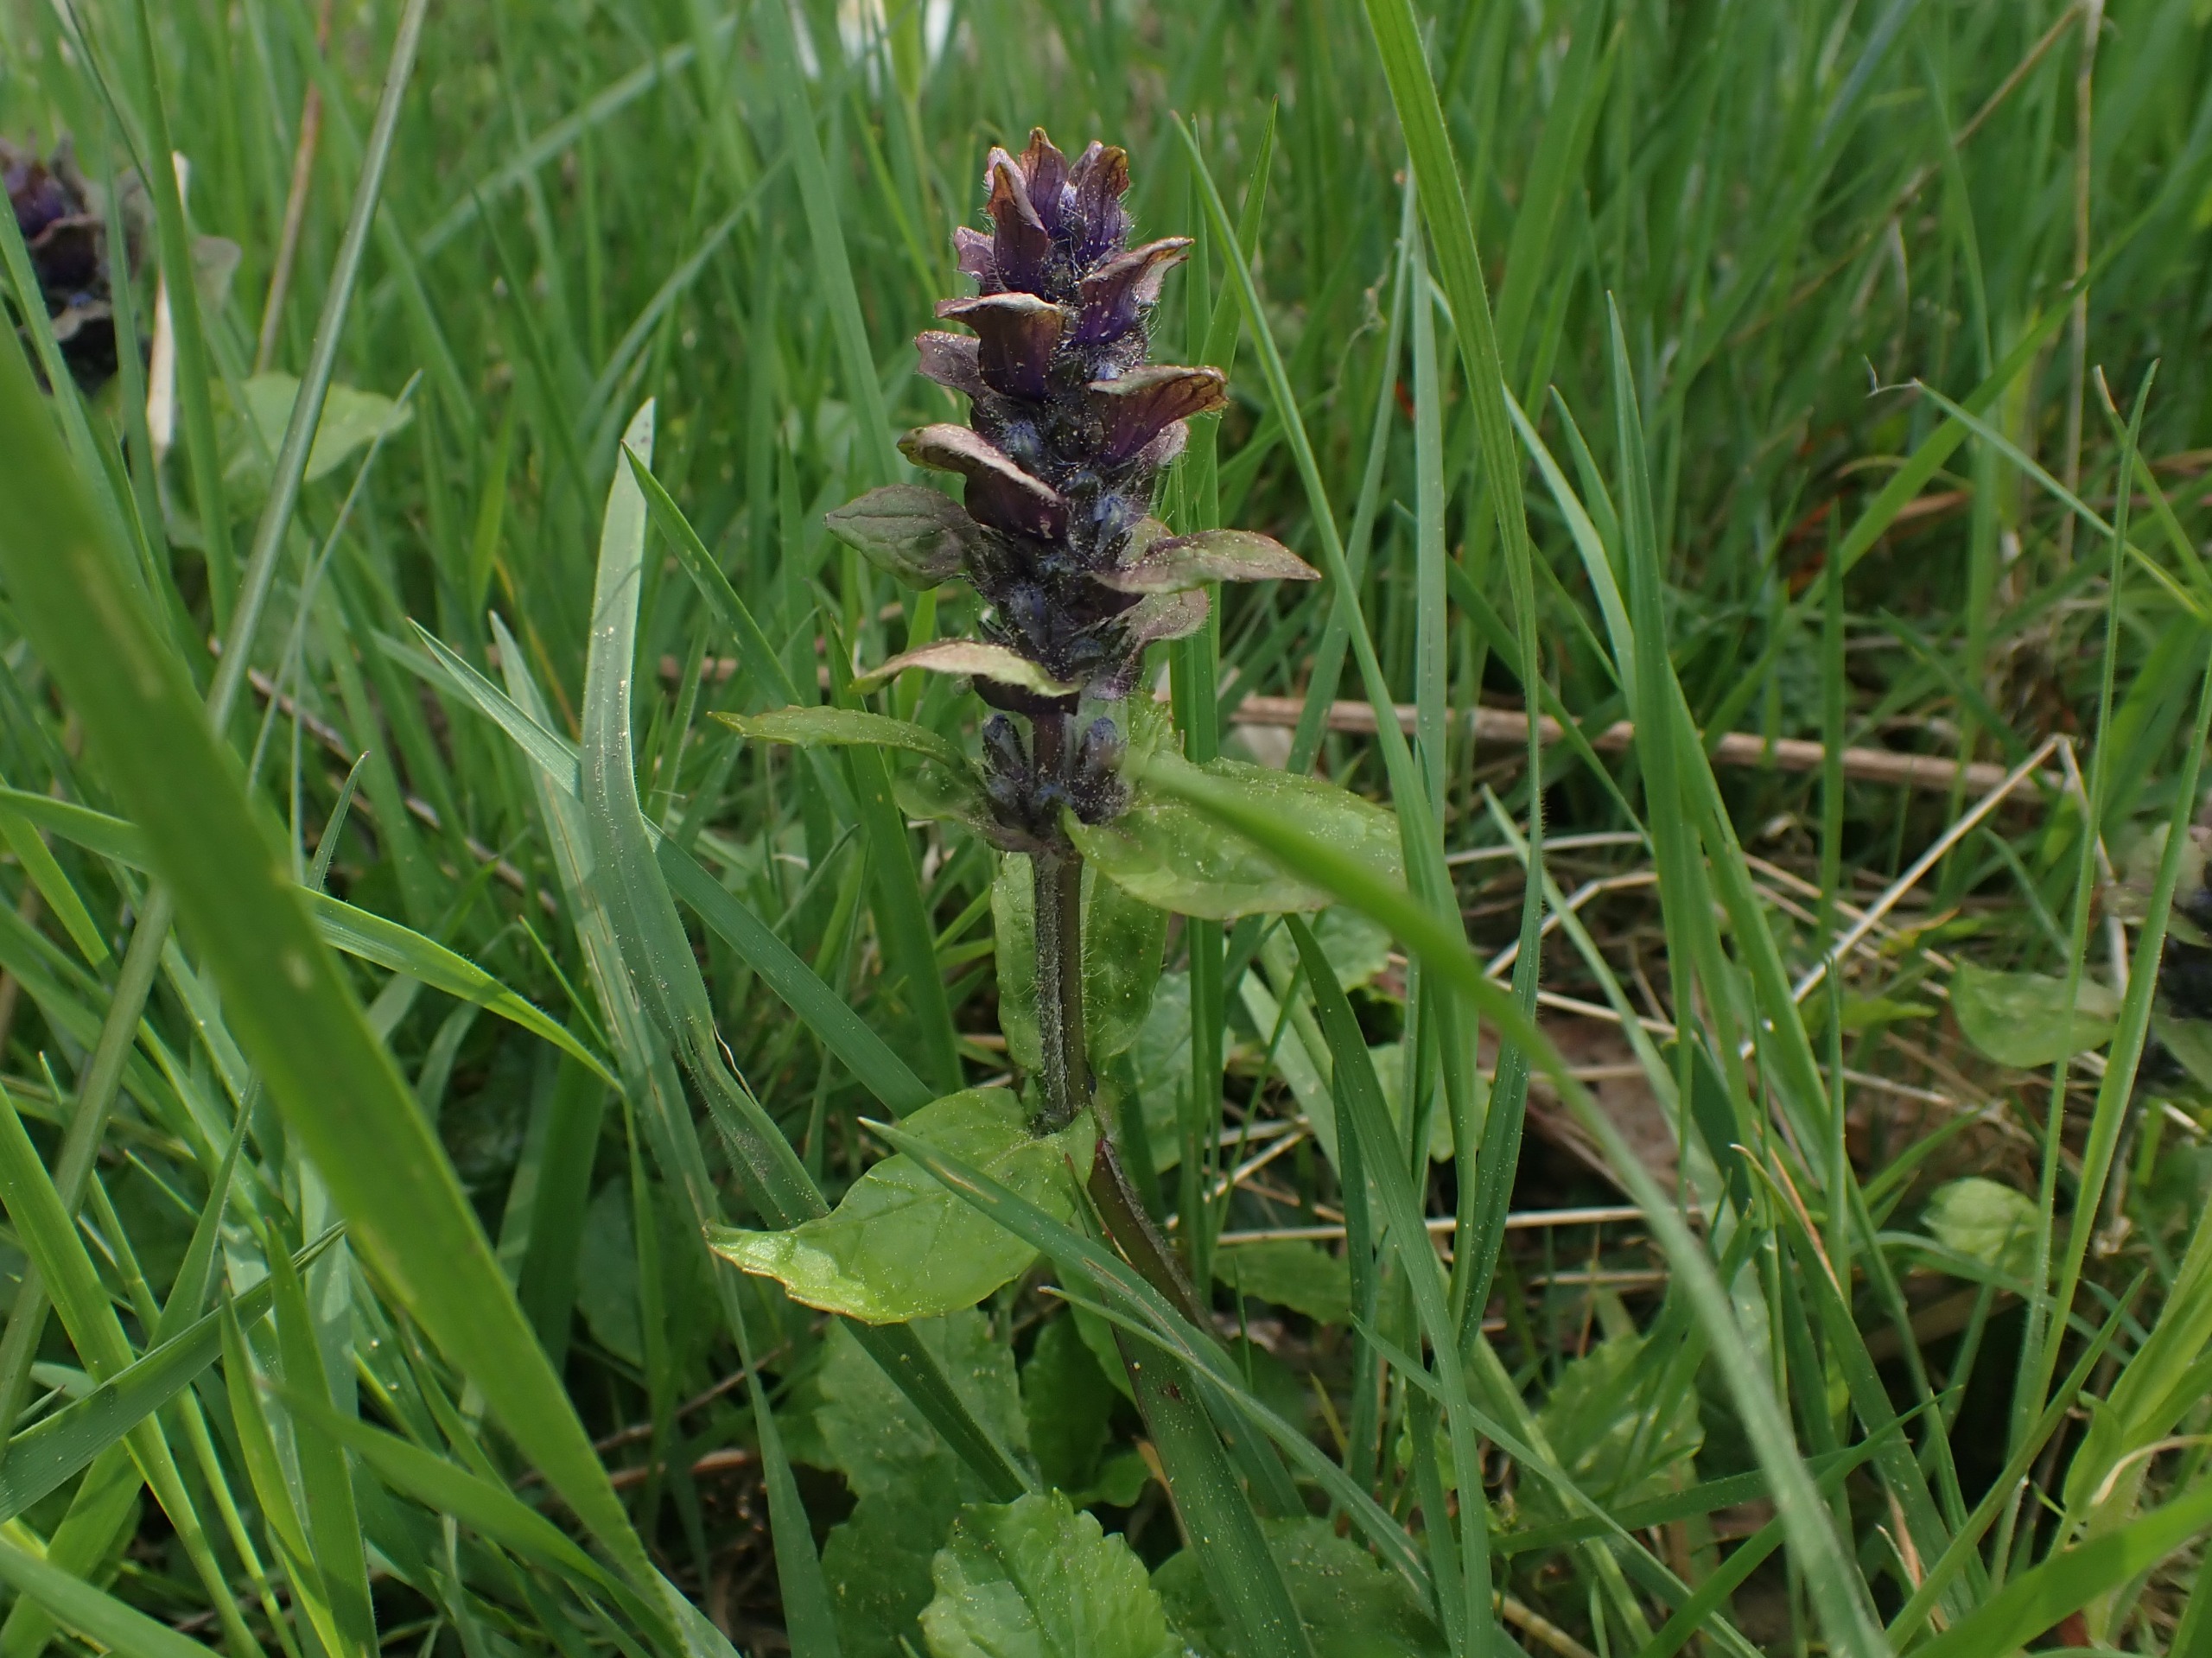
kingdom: Plantae
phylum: Tracheophyta
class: Magnoliopsida
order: Lamiales
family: Lamiaceae
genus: Ajuga
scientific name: Ajuga reptans
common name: Krybende læbeløs
